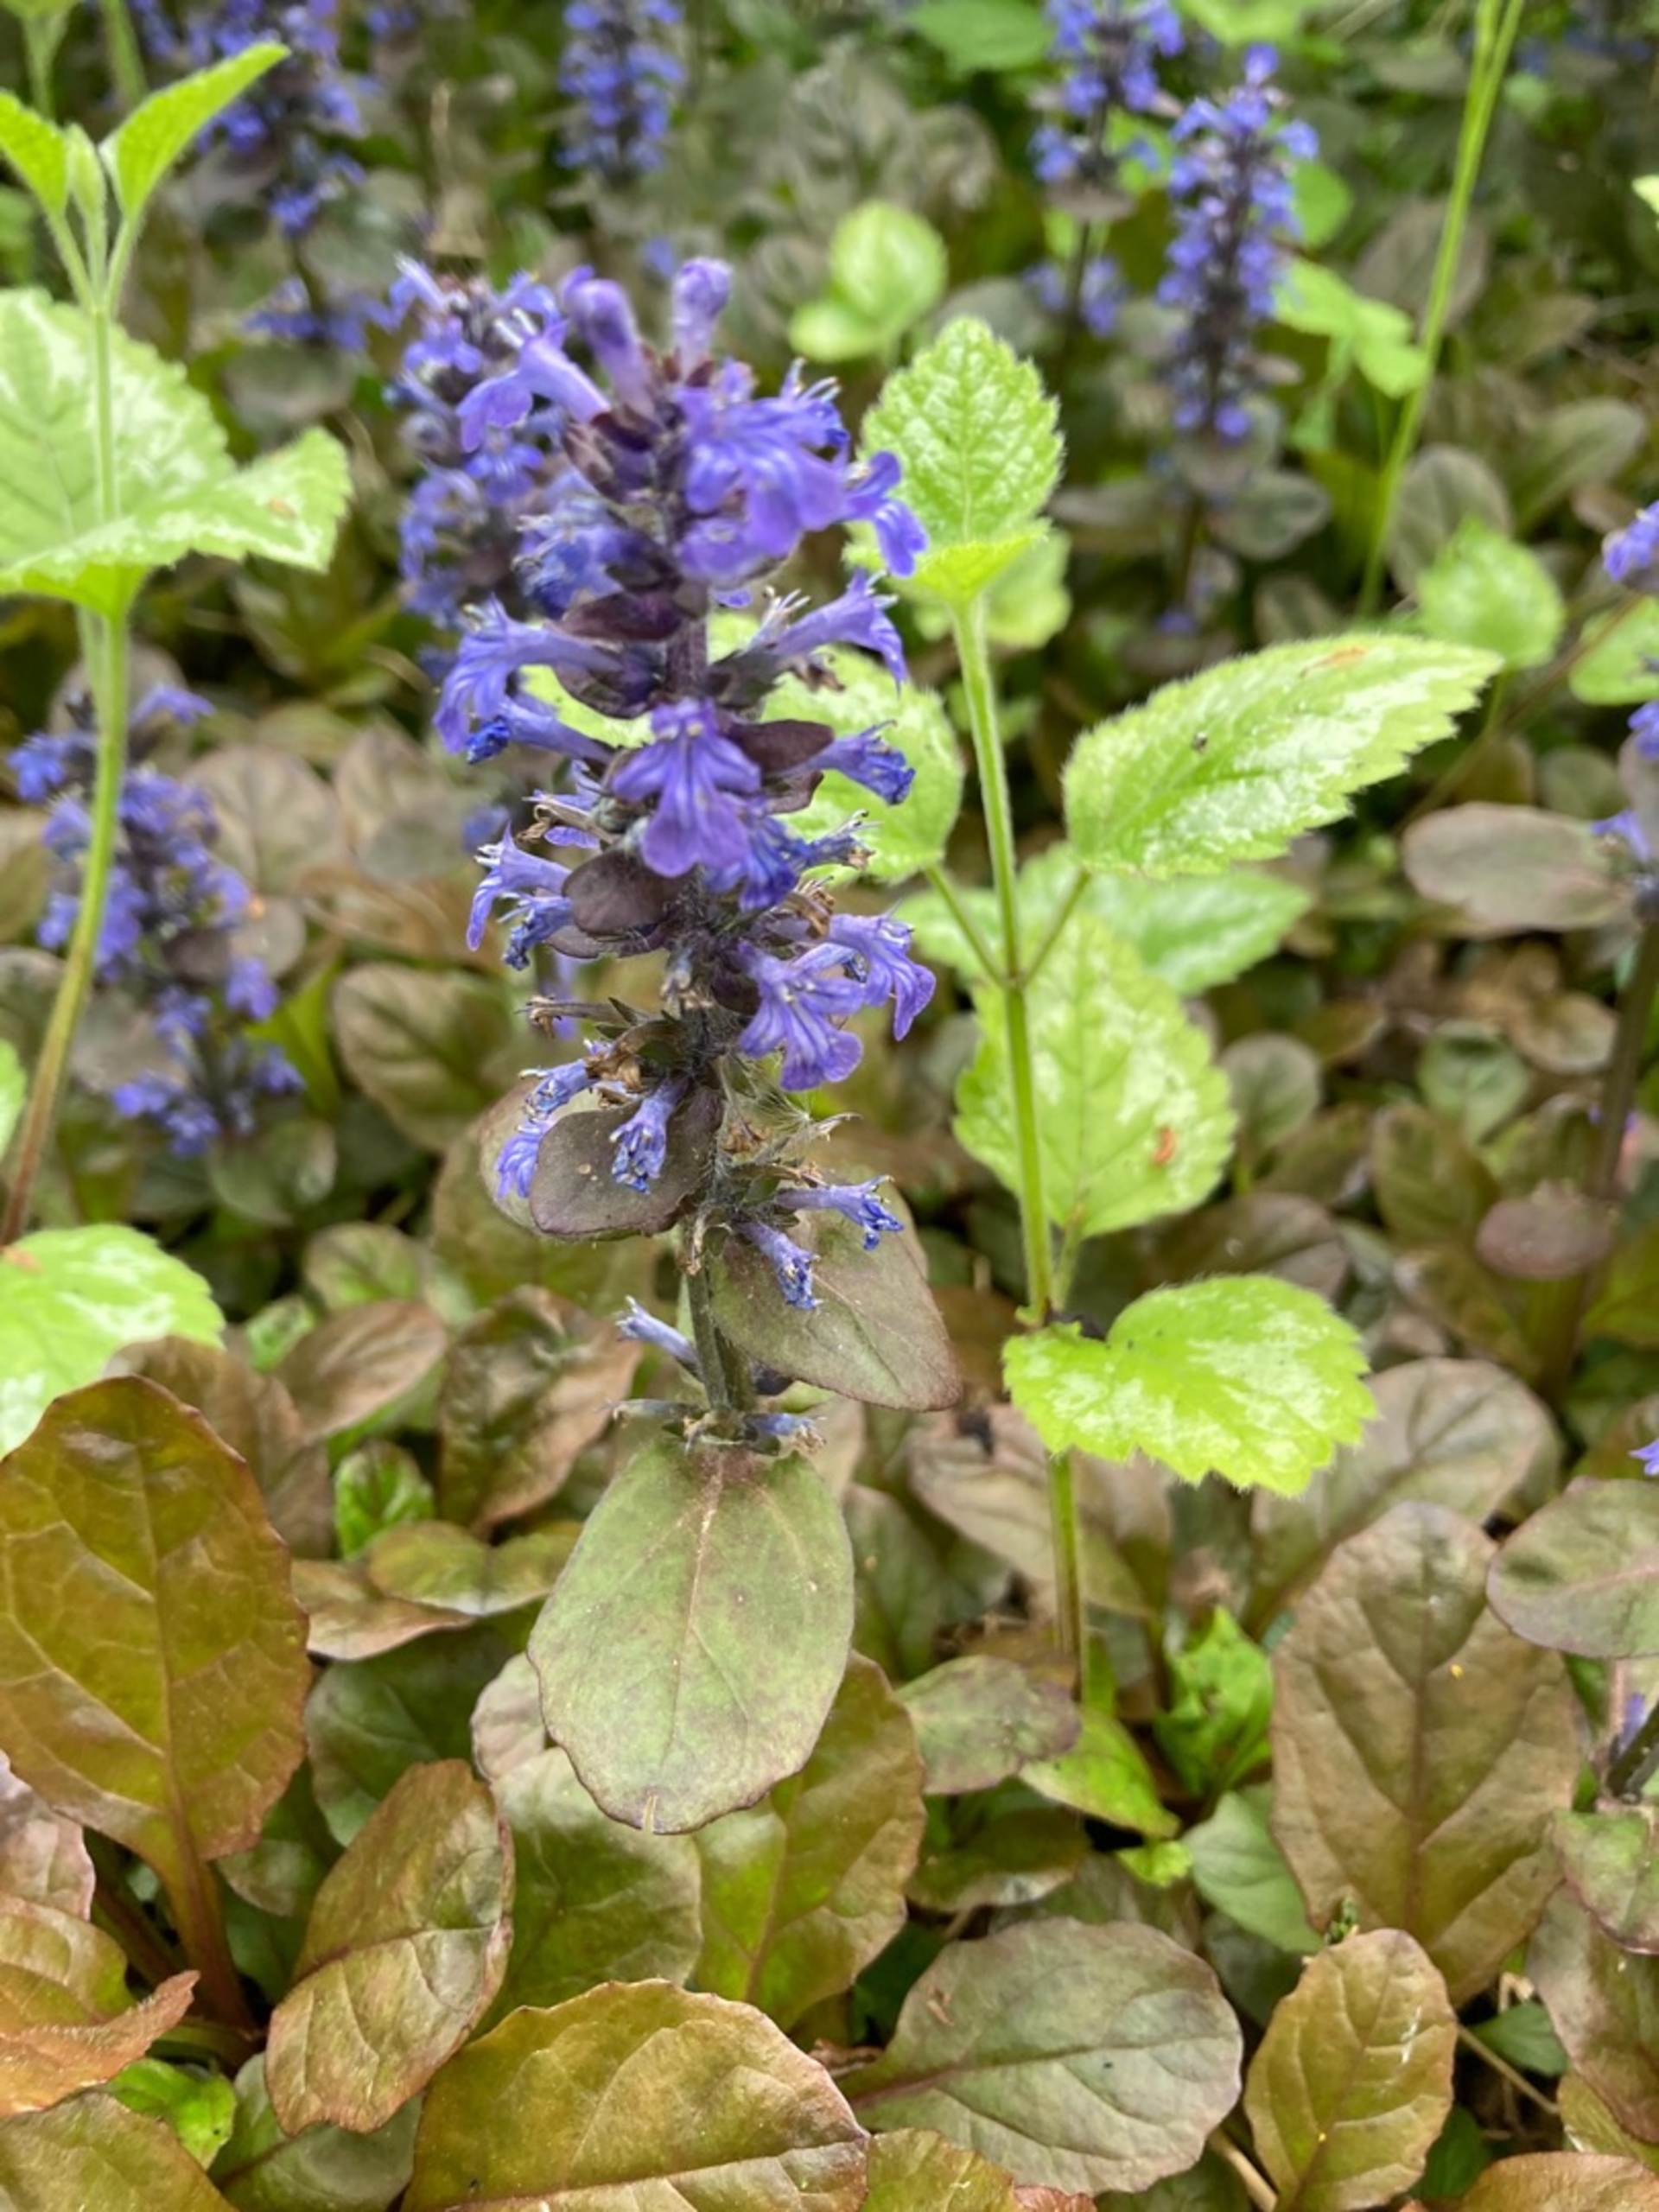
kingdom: Plantae
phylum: Tracheophyta
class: Magnoliopsida
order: Lamiales
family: Lamiaceae
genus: Ajuga
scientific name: Ajuga reptans
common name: Krybende læbeløs
